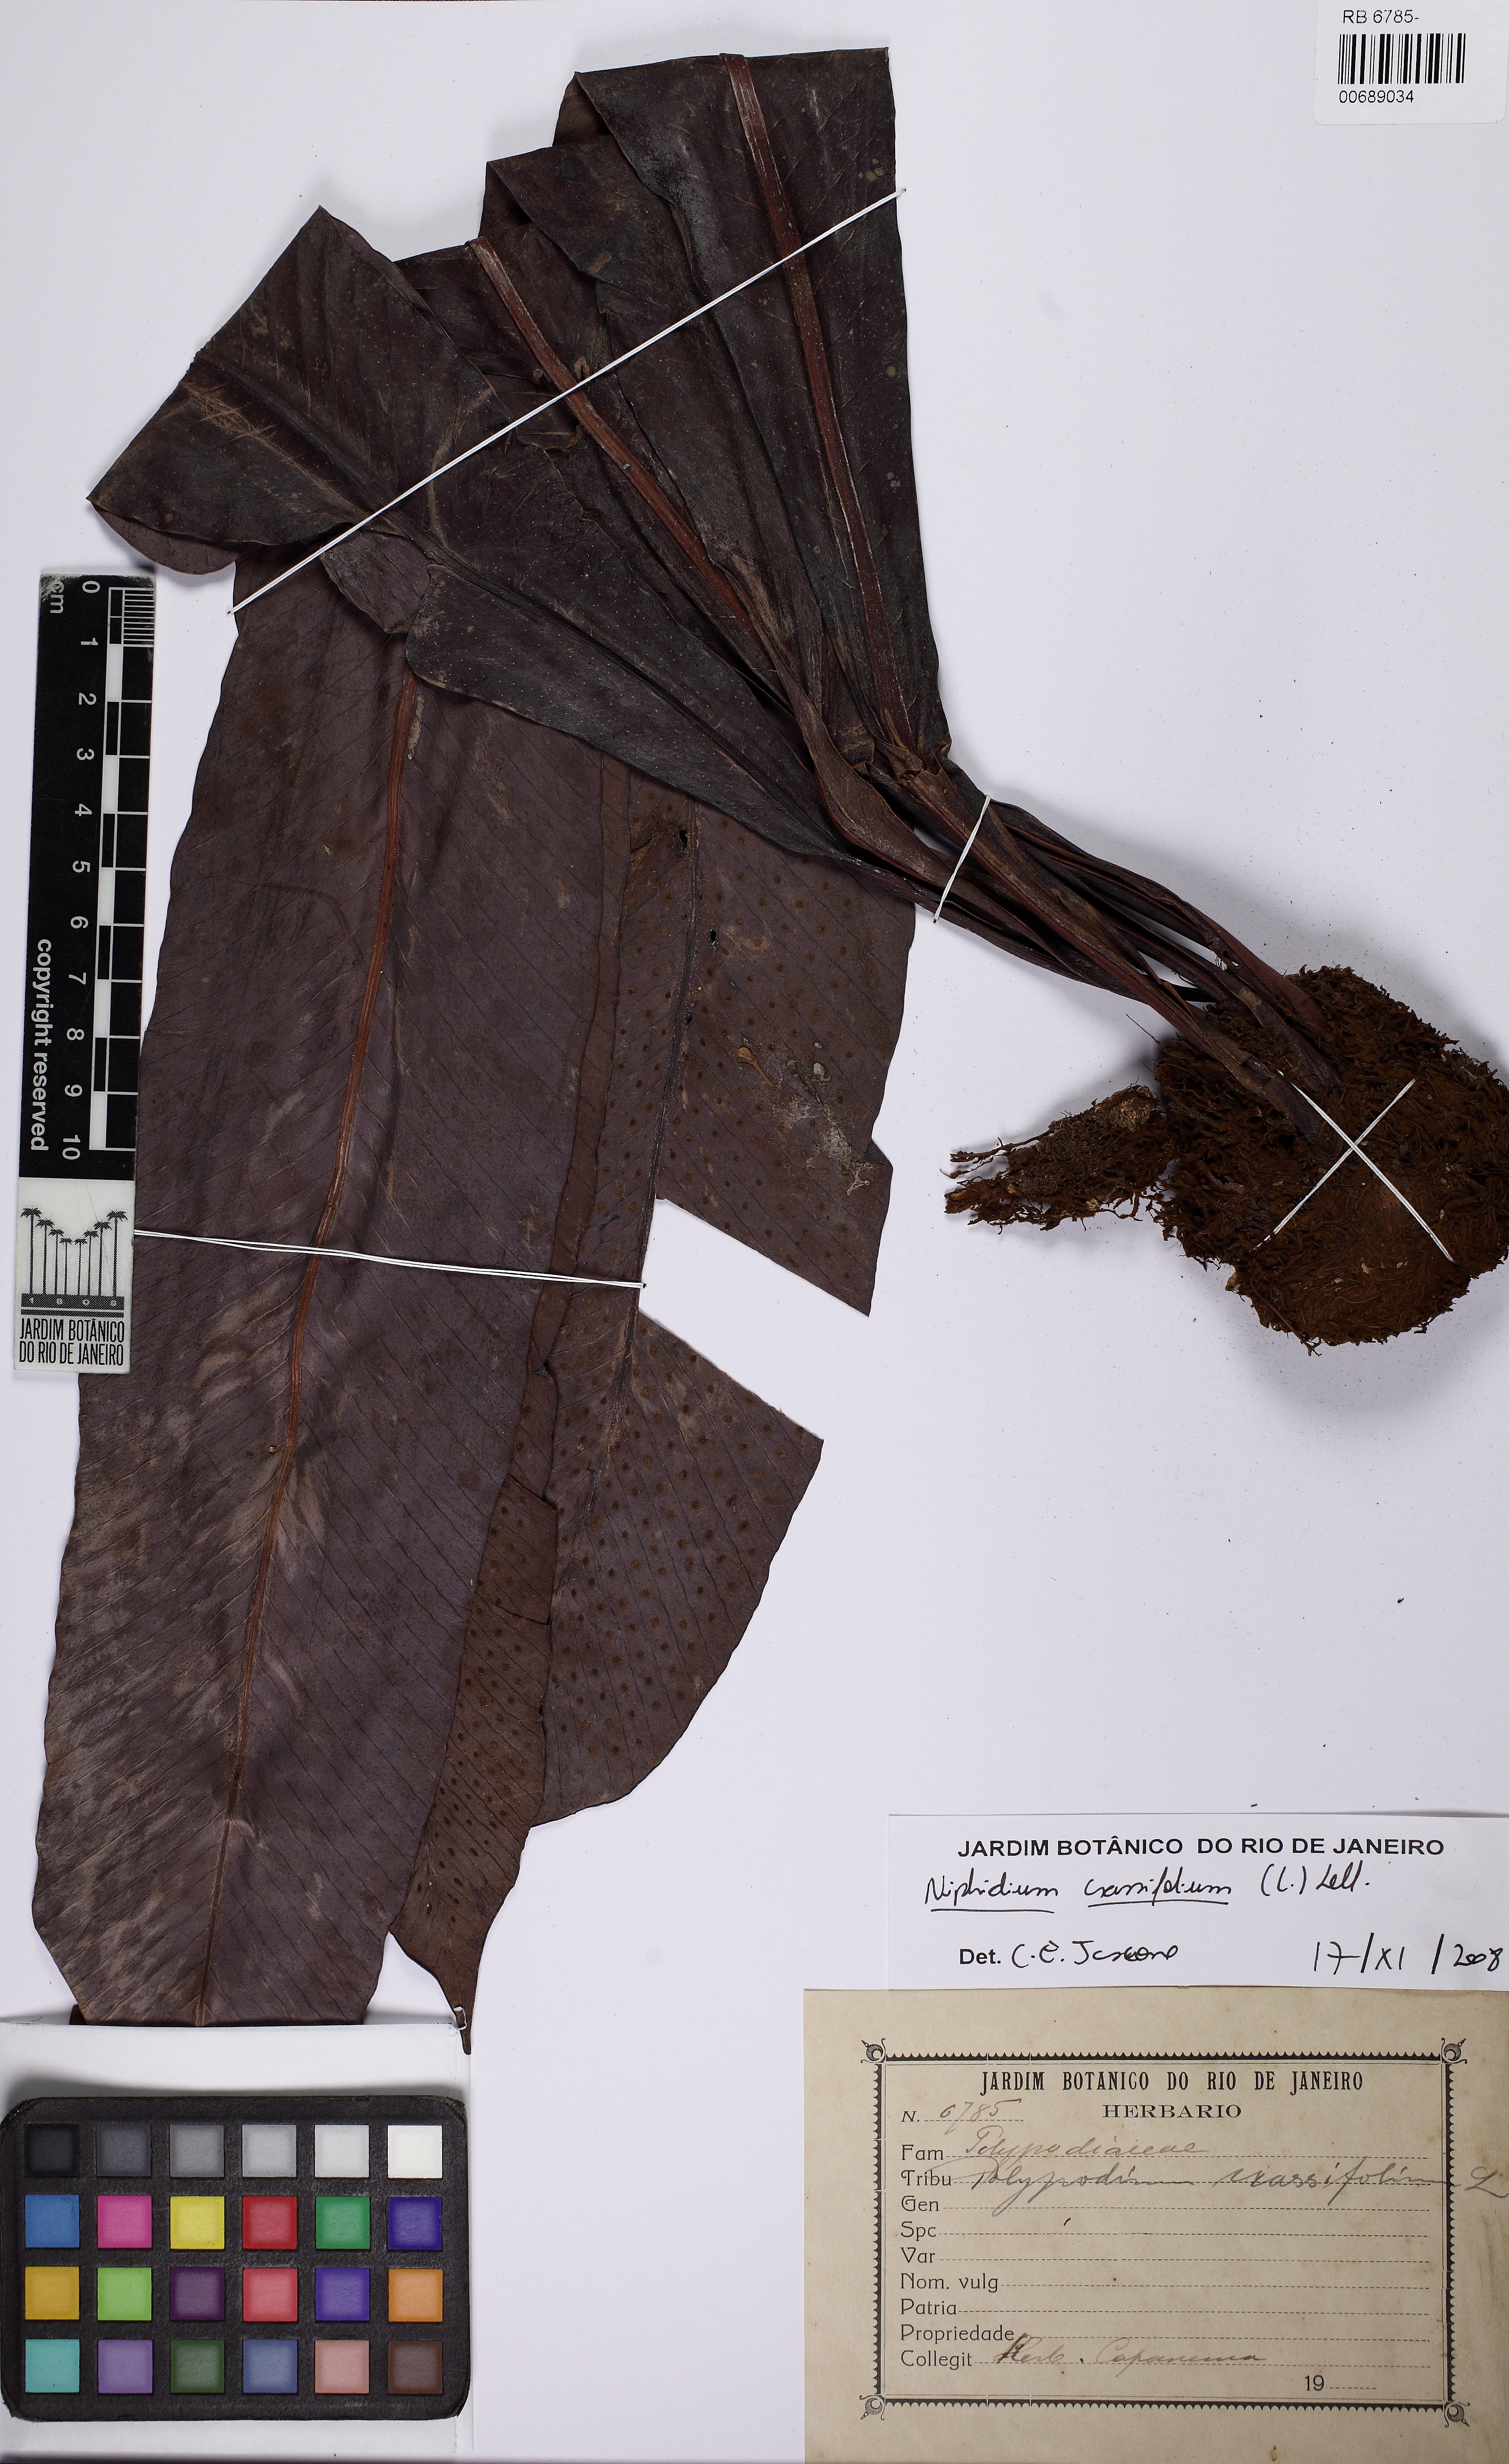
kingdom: Plantae
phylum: Tracheophyta
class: Polypodiopsida
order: Polypodiales
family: Polypodiaceae
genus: Niphidium
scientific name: Niphidium crassifolium
